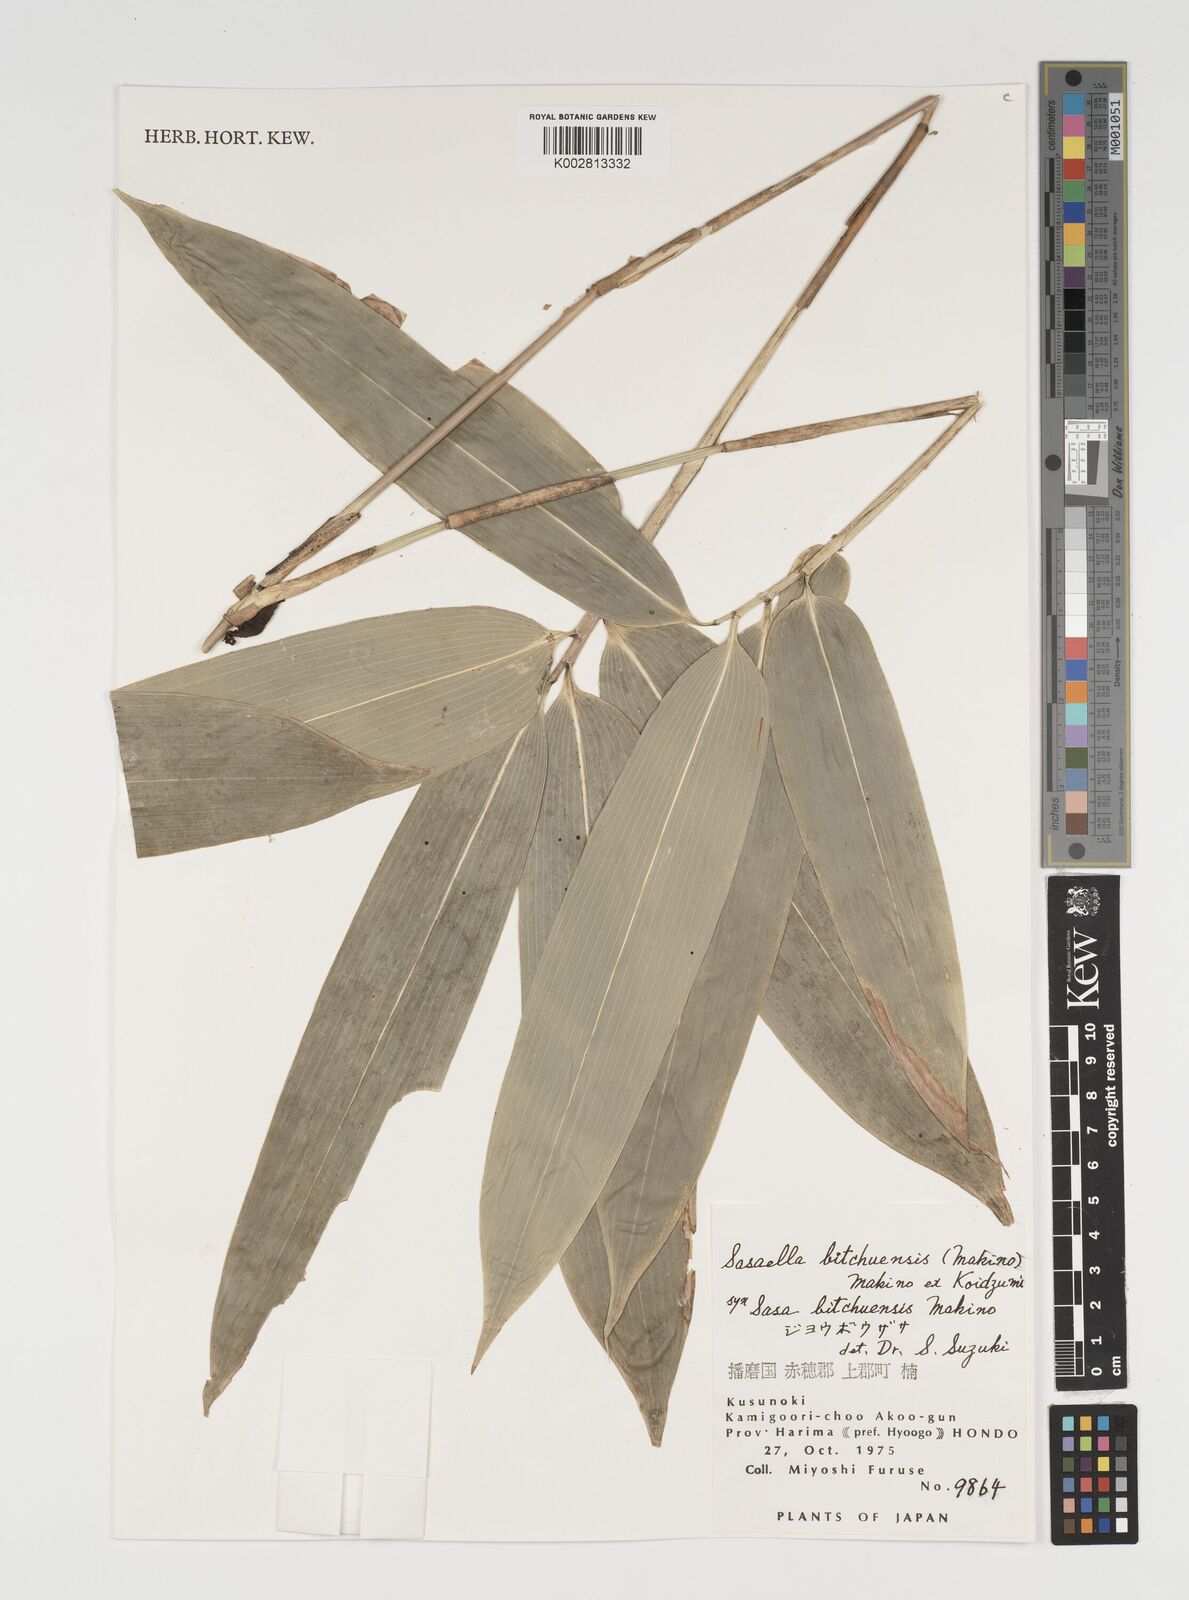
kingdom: Plantae
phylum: Tracheophyta
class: Liliopsida
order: Poales
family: Poaceae
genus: Sasaella
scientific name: Sasaella bitchuensis
